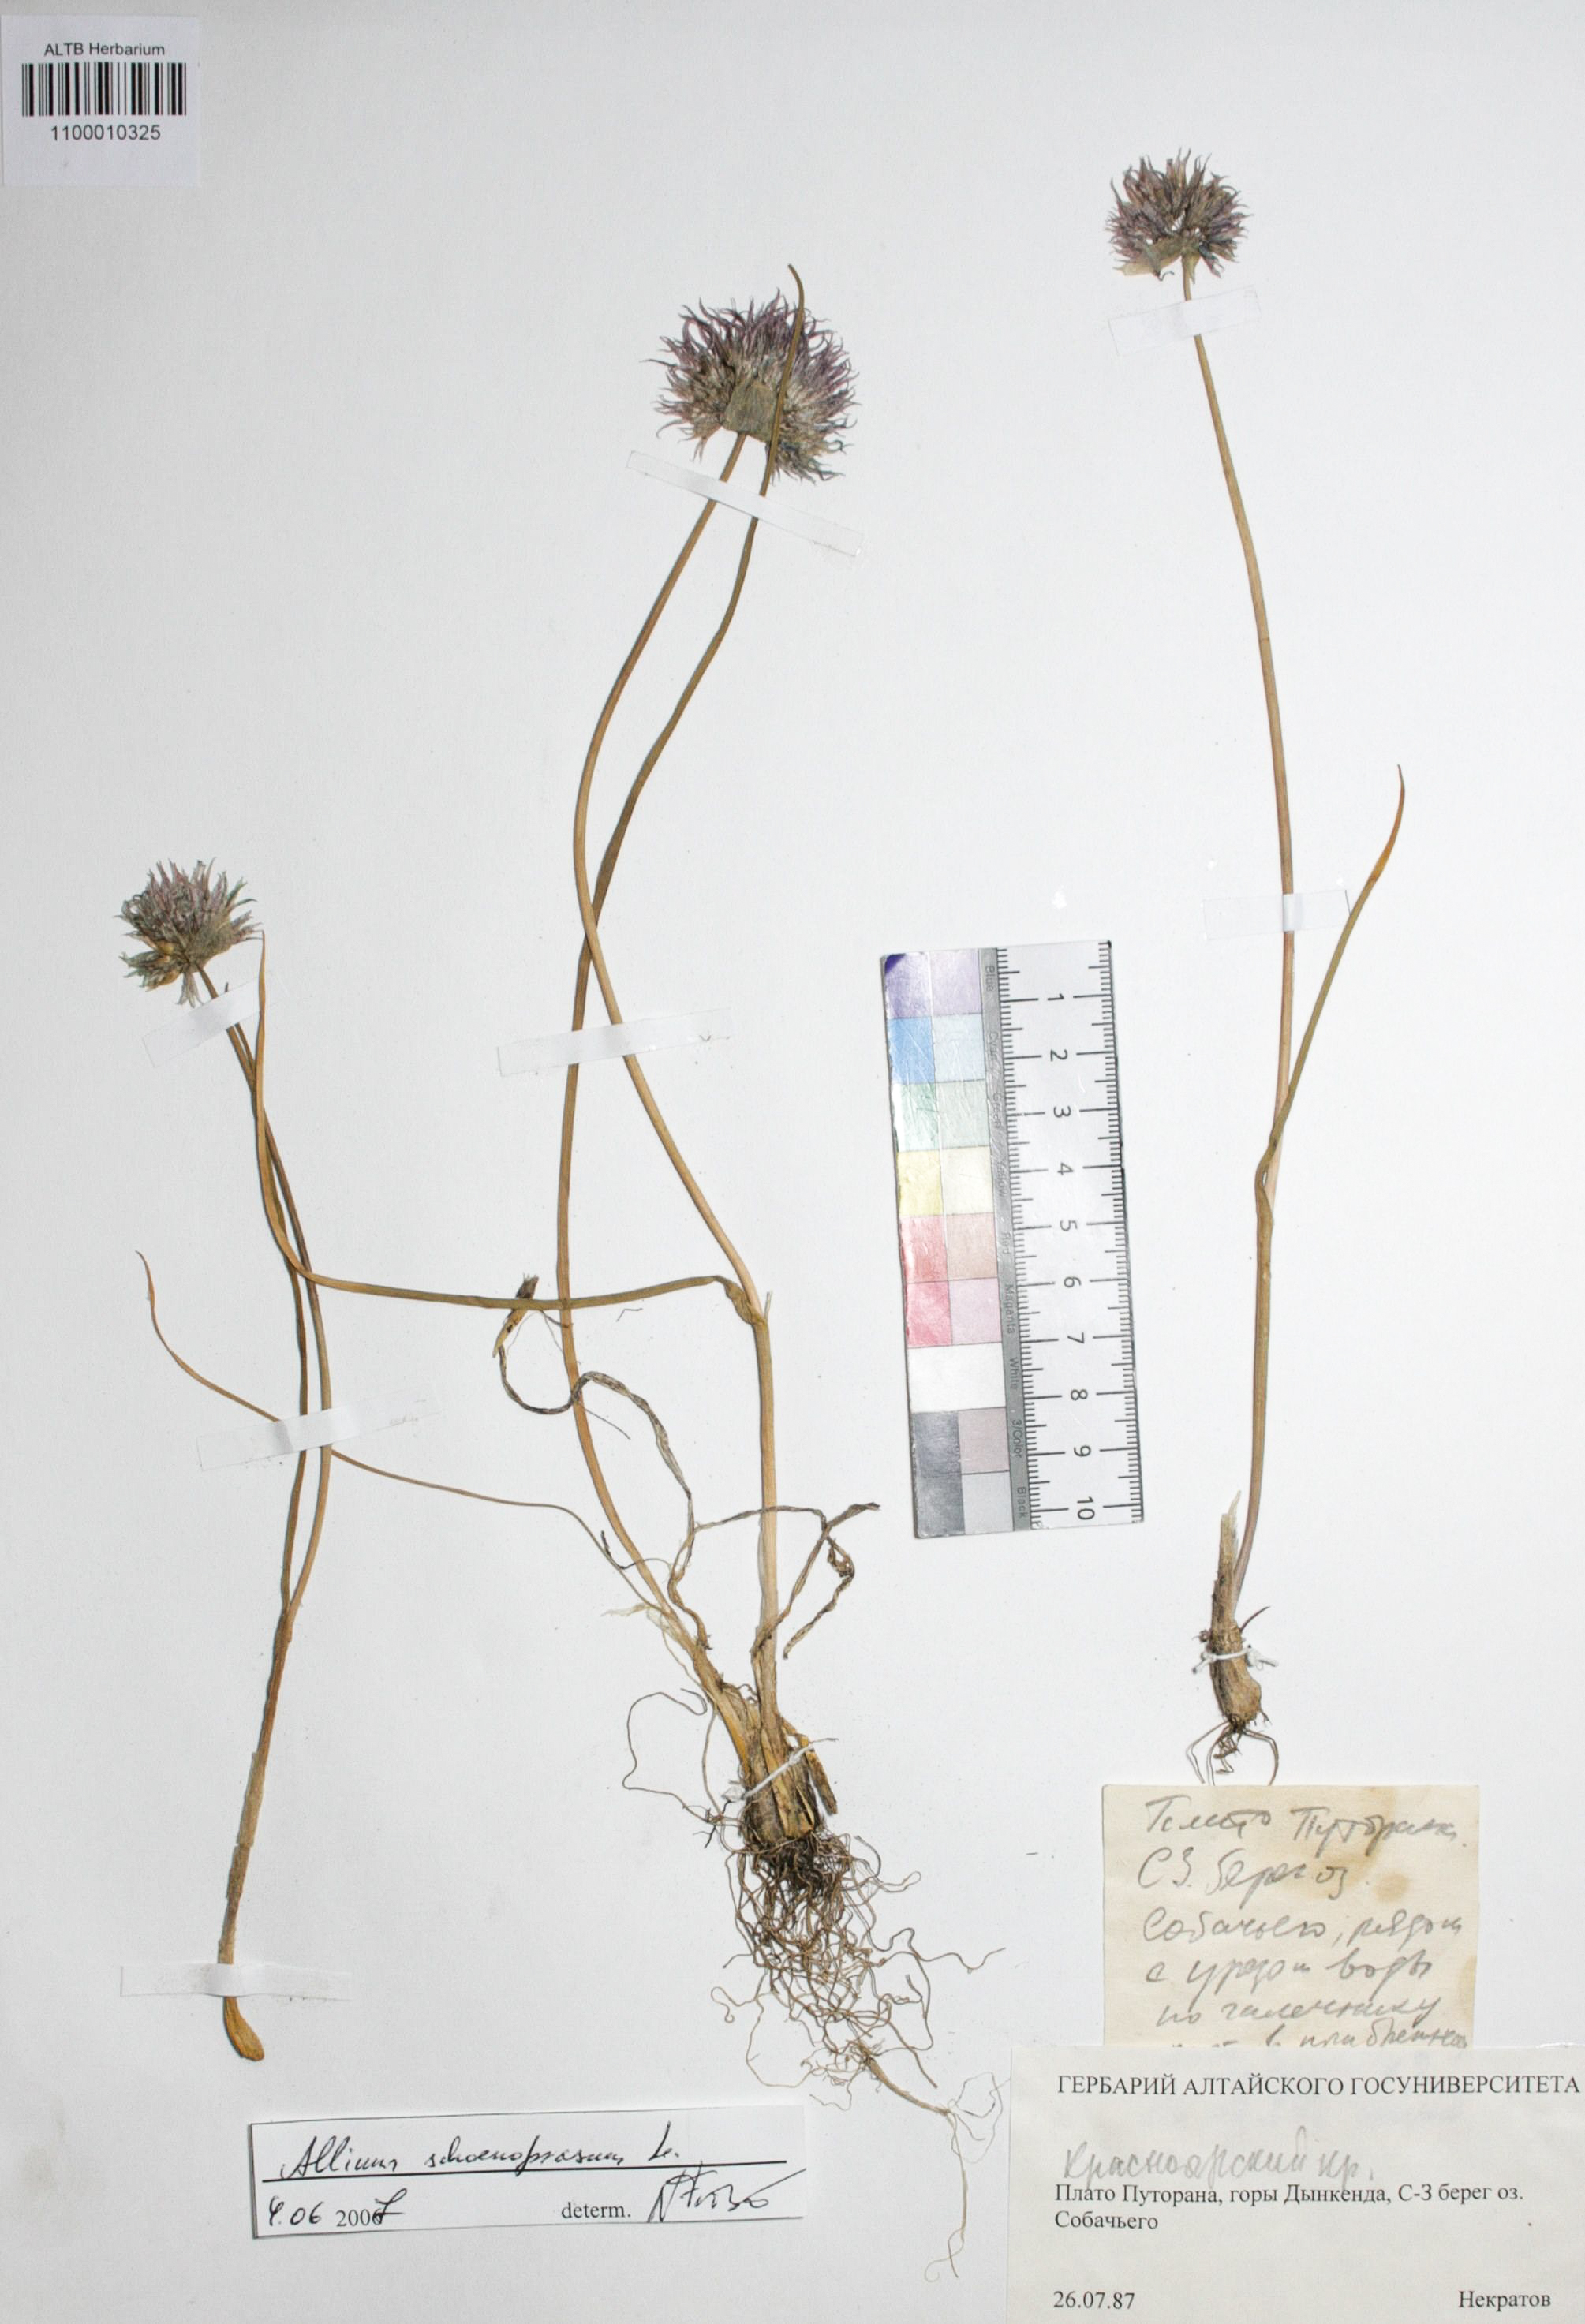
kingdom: Plantae
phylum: Tracheophyta
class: Liliopsida
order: Asparagales
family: Amaryllidaceae
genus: Allium
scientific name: Allium schoenoprasum
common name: Chives
